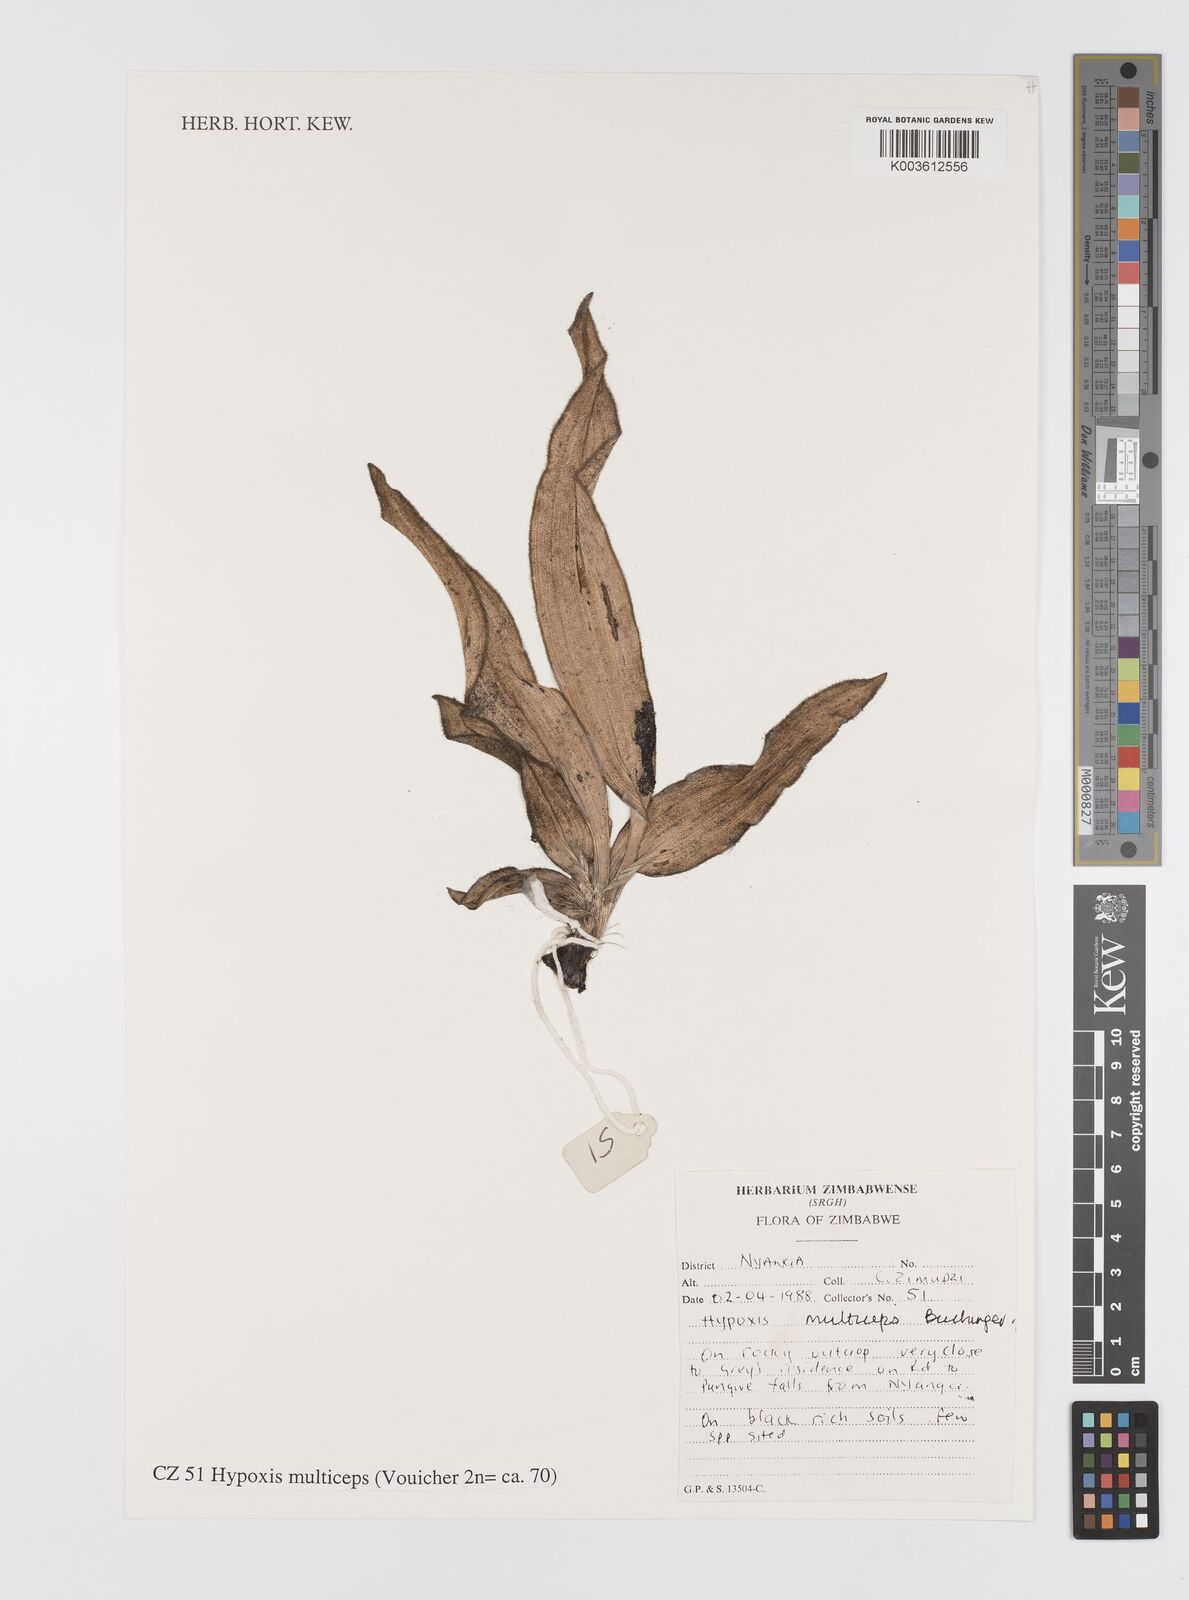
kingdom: Plantae
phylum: Tracheophyta
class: Liliopsida
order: Asparagales
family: Hypoxidaceae
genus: Hypoxis
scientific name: Hypoxis multiceps
